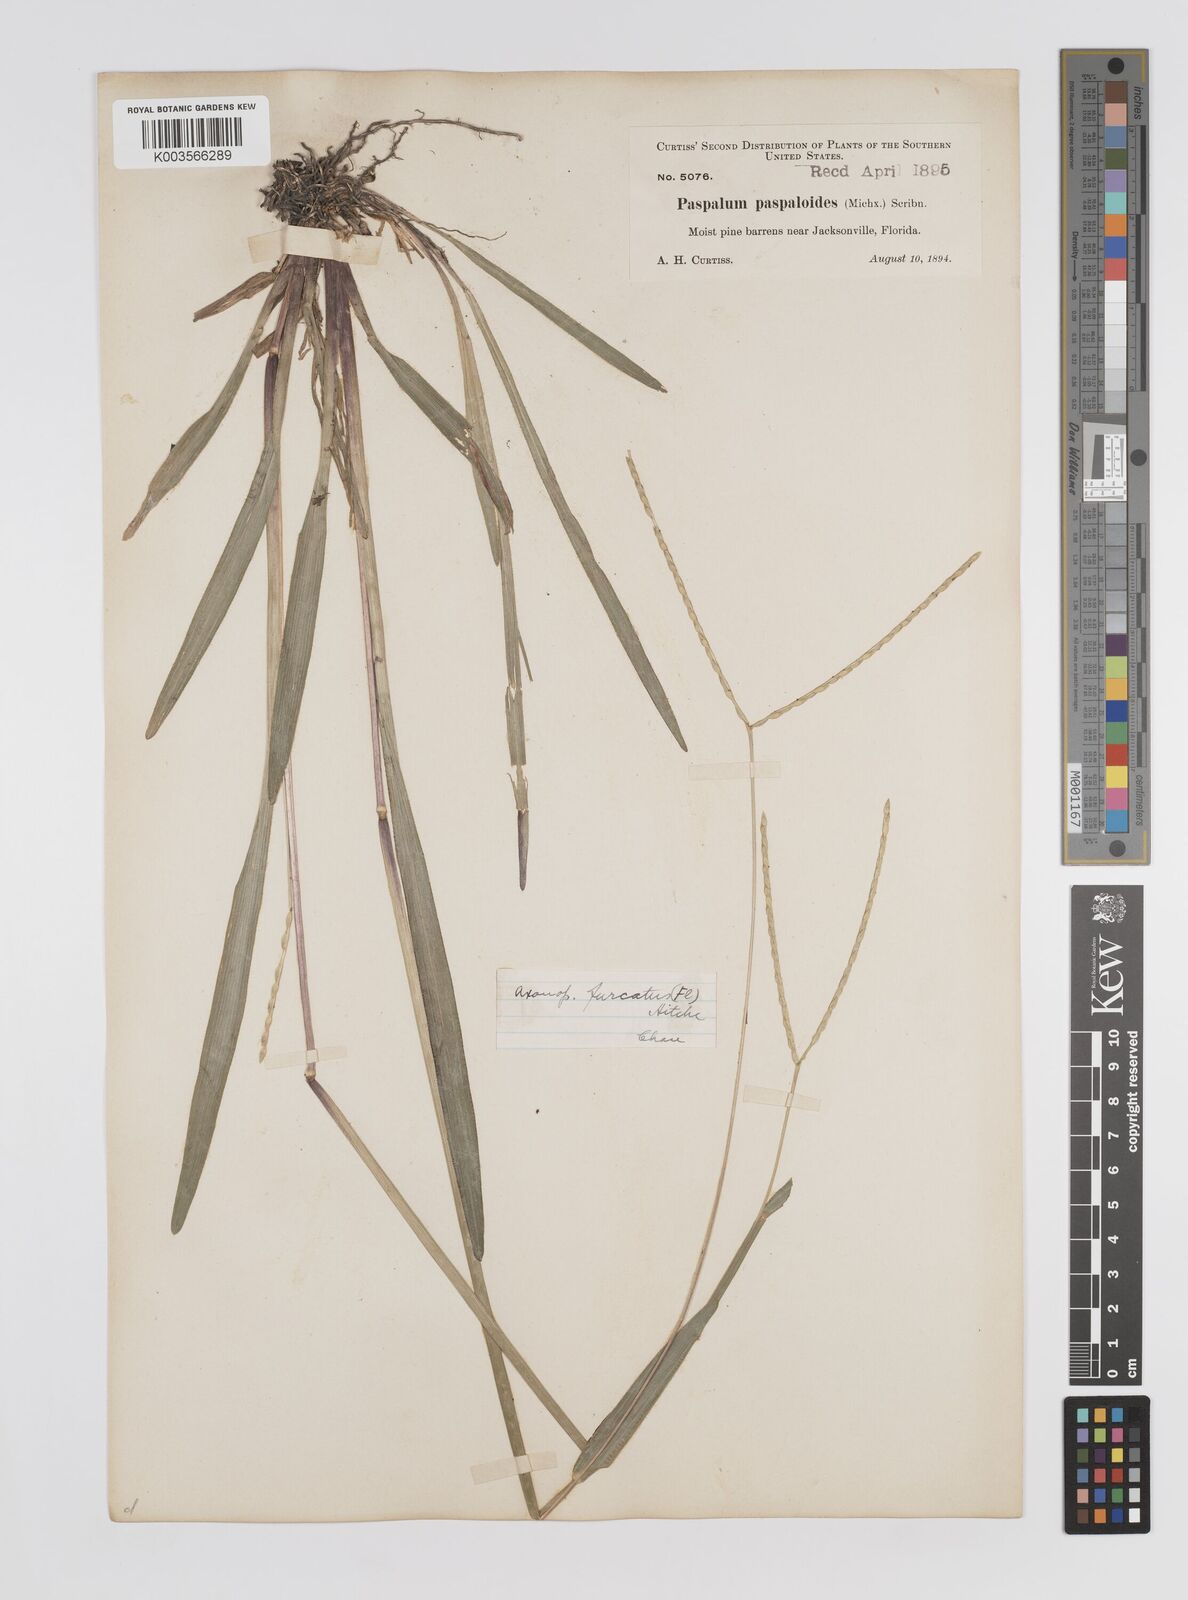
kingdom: Plantae
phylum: Tracheophyta
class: Liliopsida
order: Poales
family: Poaceae
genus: Axonopus
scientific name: Axonopus furcatus
